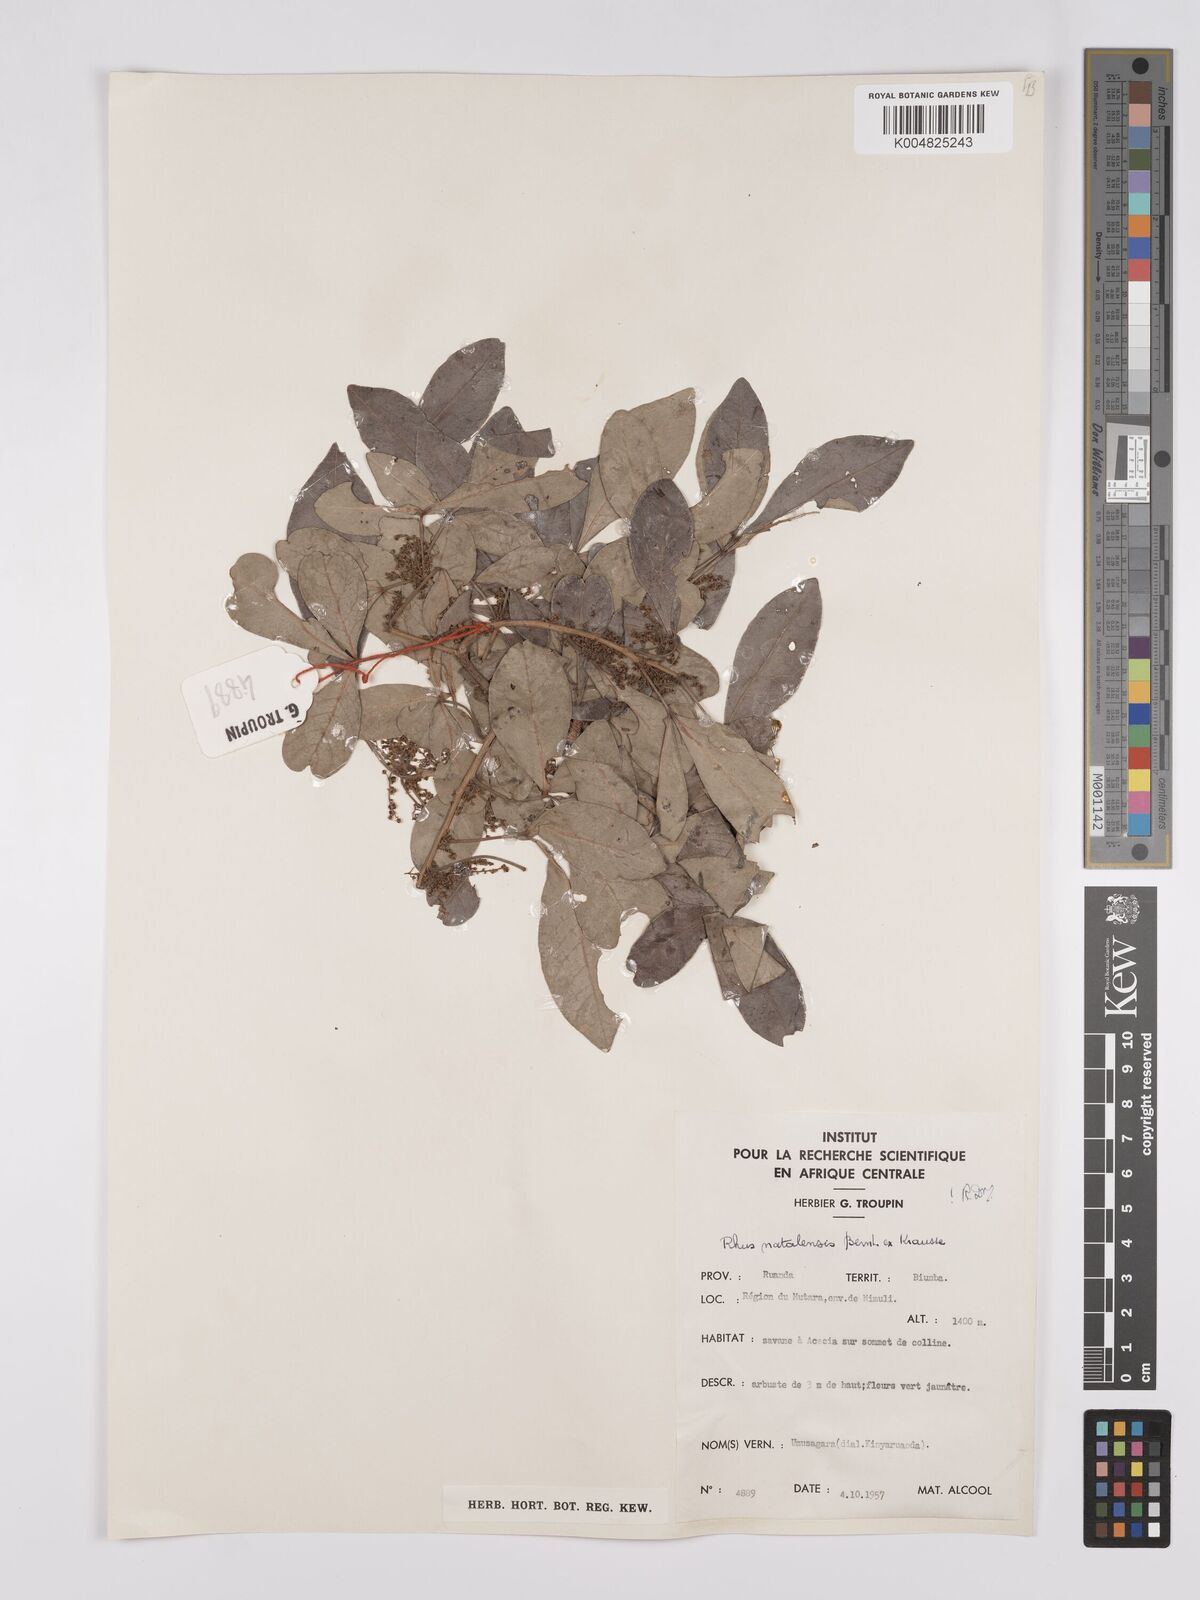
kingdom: Plantae
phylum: Tracheophyta
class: Magnoliopsida
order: Sapindales
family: Anacardiaceae
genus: Searsia
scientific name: Searsia natalensis
